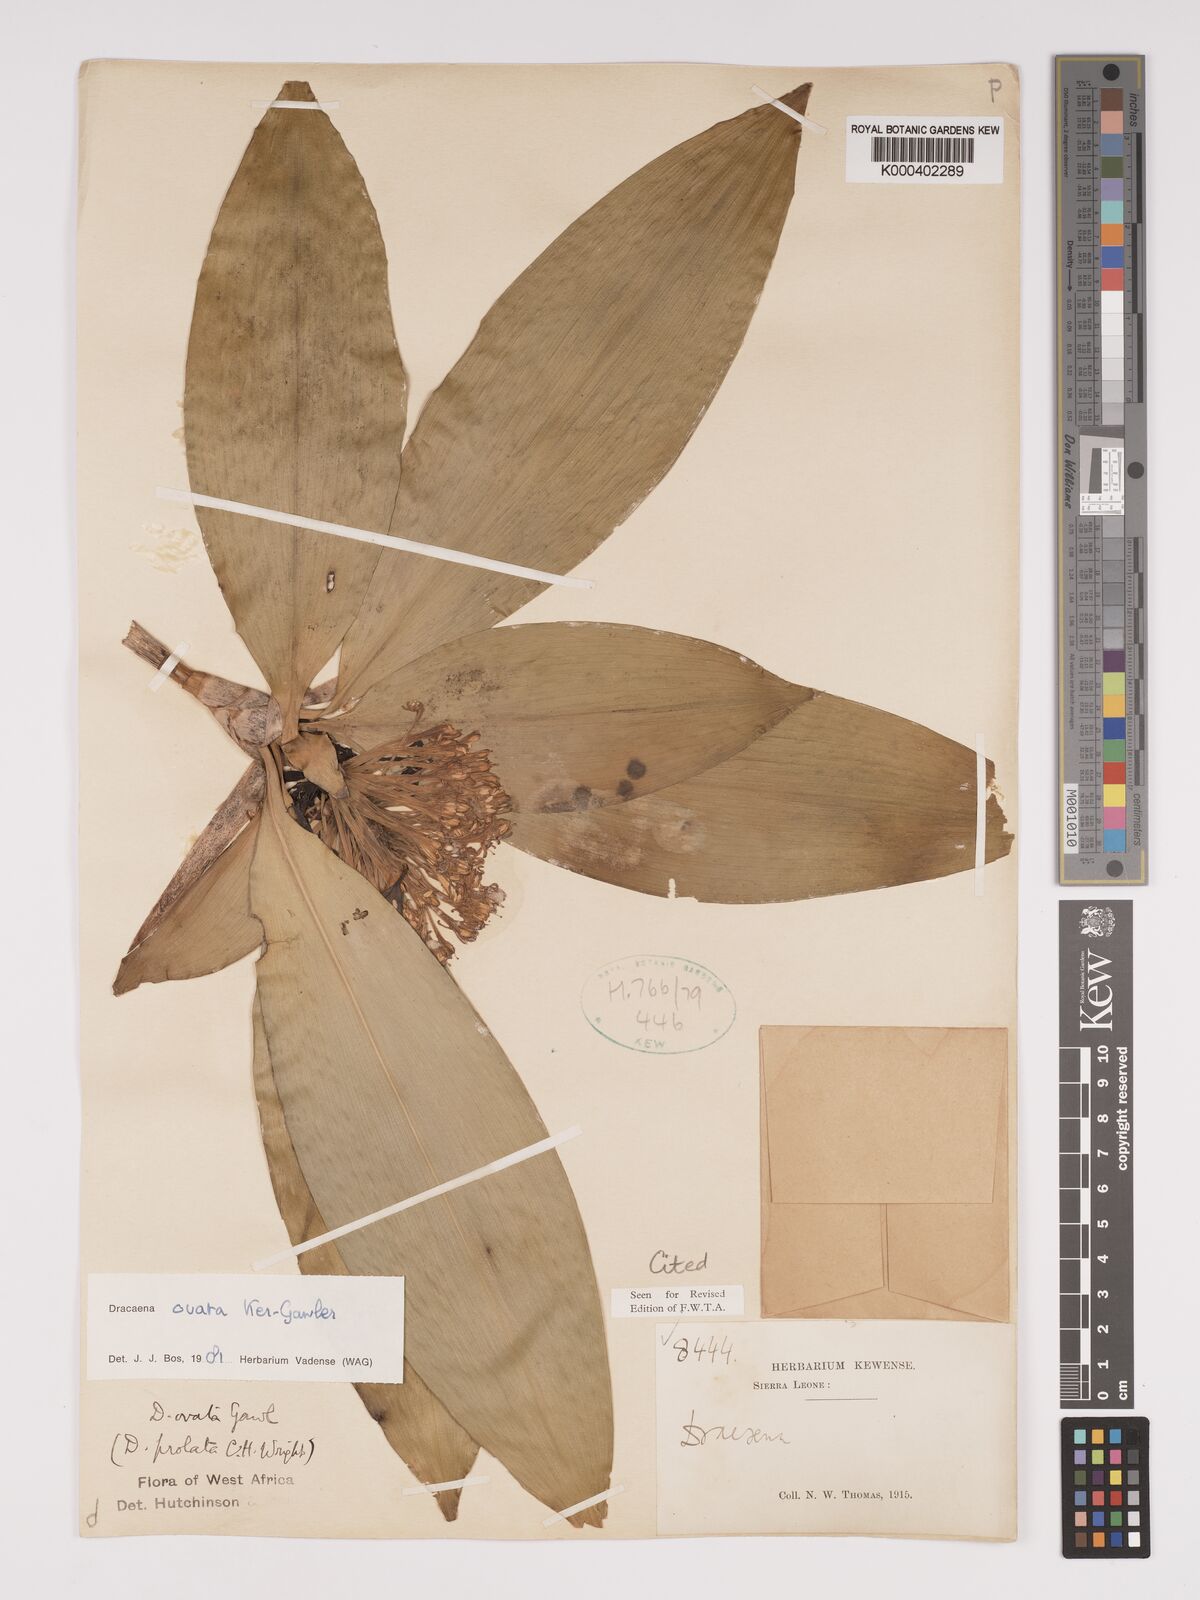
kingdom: Plantae
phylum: Tracheophyta
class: Liliopsida
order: Asparagales
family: Asparagaceae
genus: Dracaena
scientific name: Dracaena ovata
